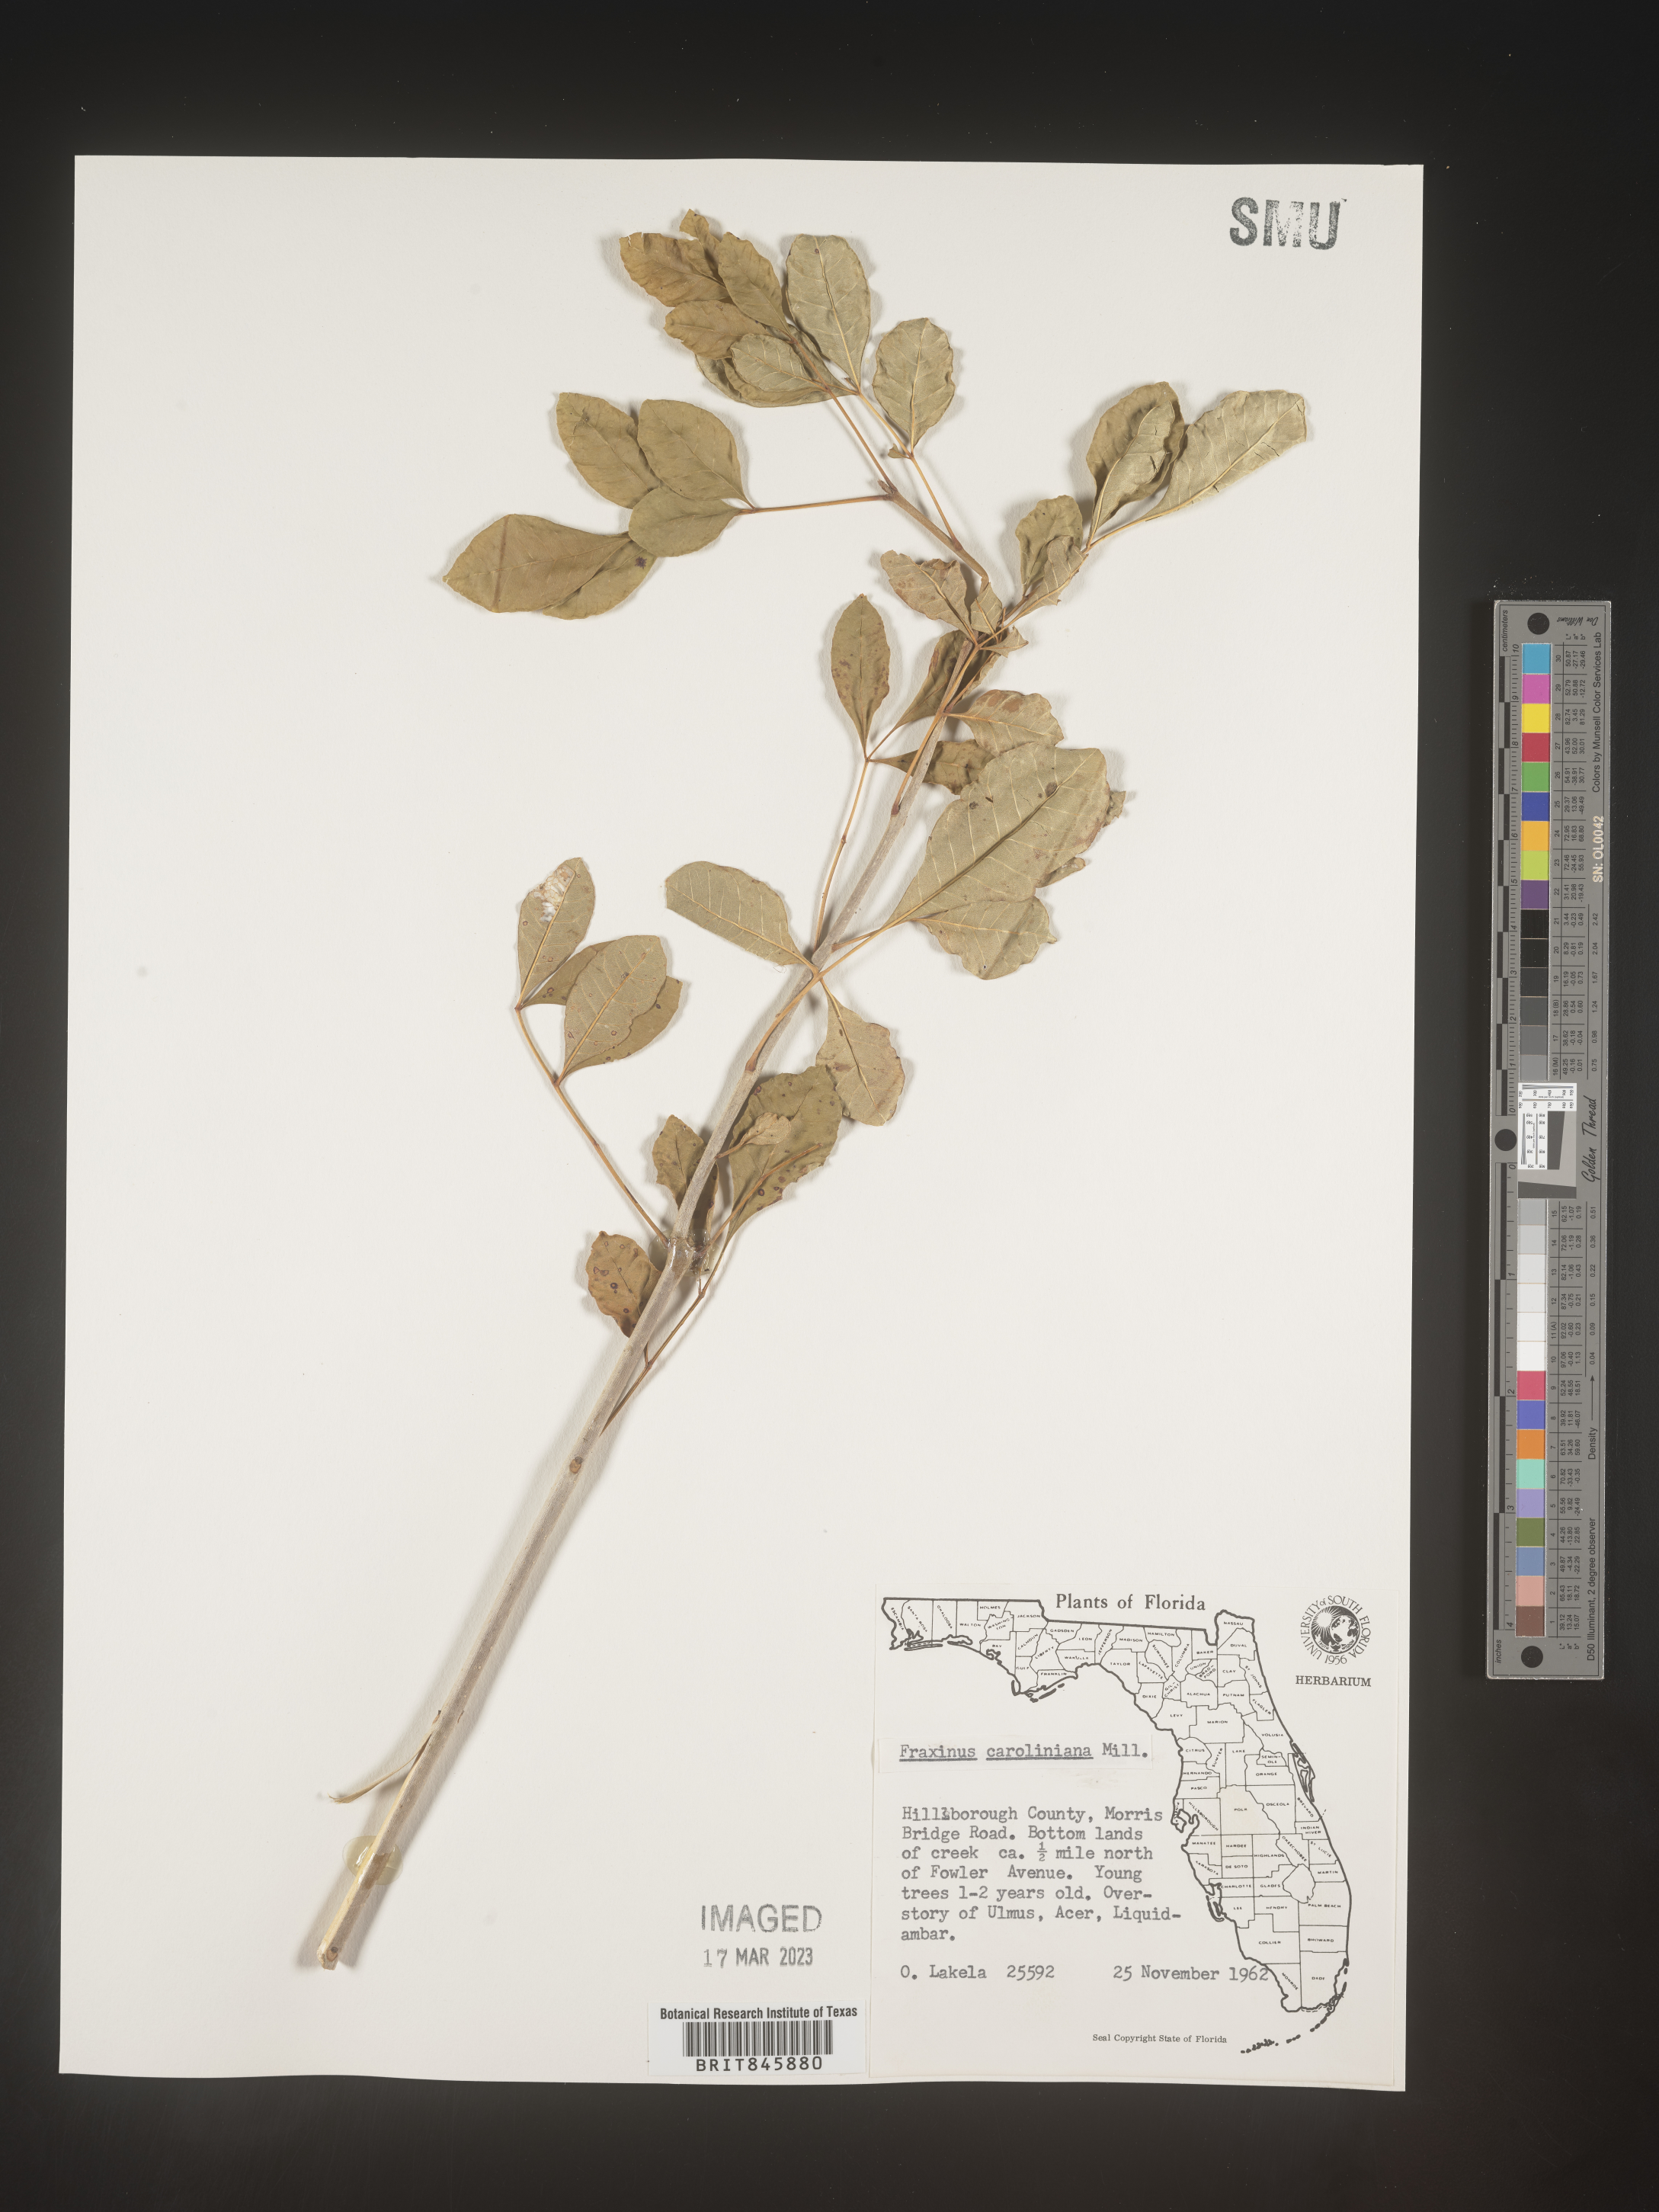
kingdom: Plantae
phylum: Tracheophyta
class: Magnoliopsida
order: Lamiales
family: Oleaceae
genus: Fraxinus
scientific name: Fraxinus caroliniana
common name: Carolina ash
